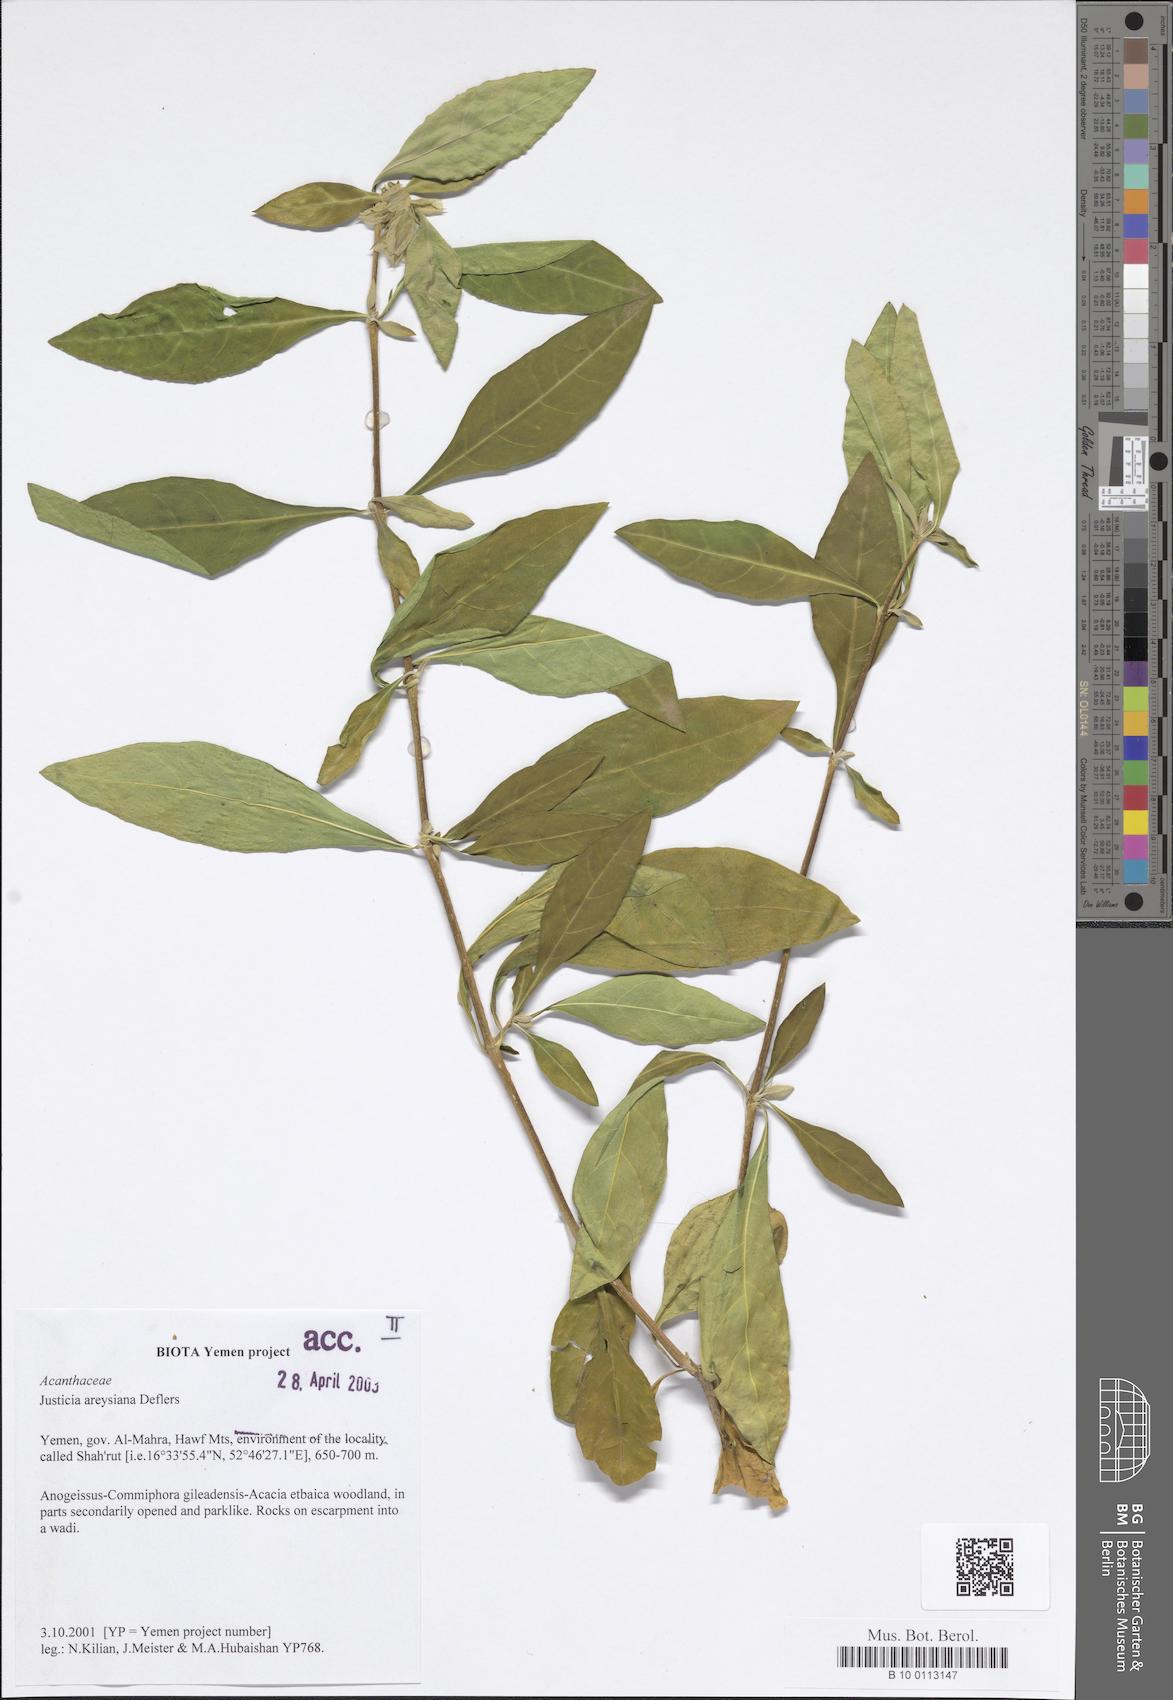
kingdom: Plantae
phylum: Tracheophyta
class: Magnoliopsida
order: Lamiales
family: Acanthaceae
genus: Justicia
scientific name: Justicia areysiana
